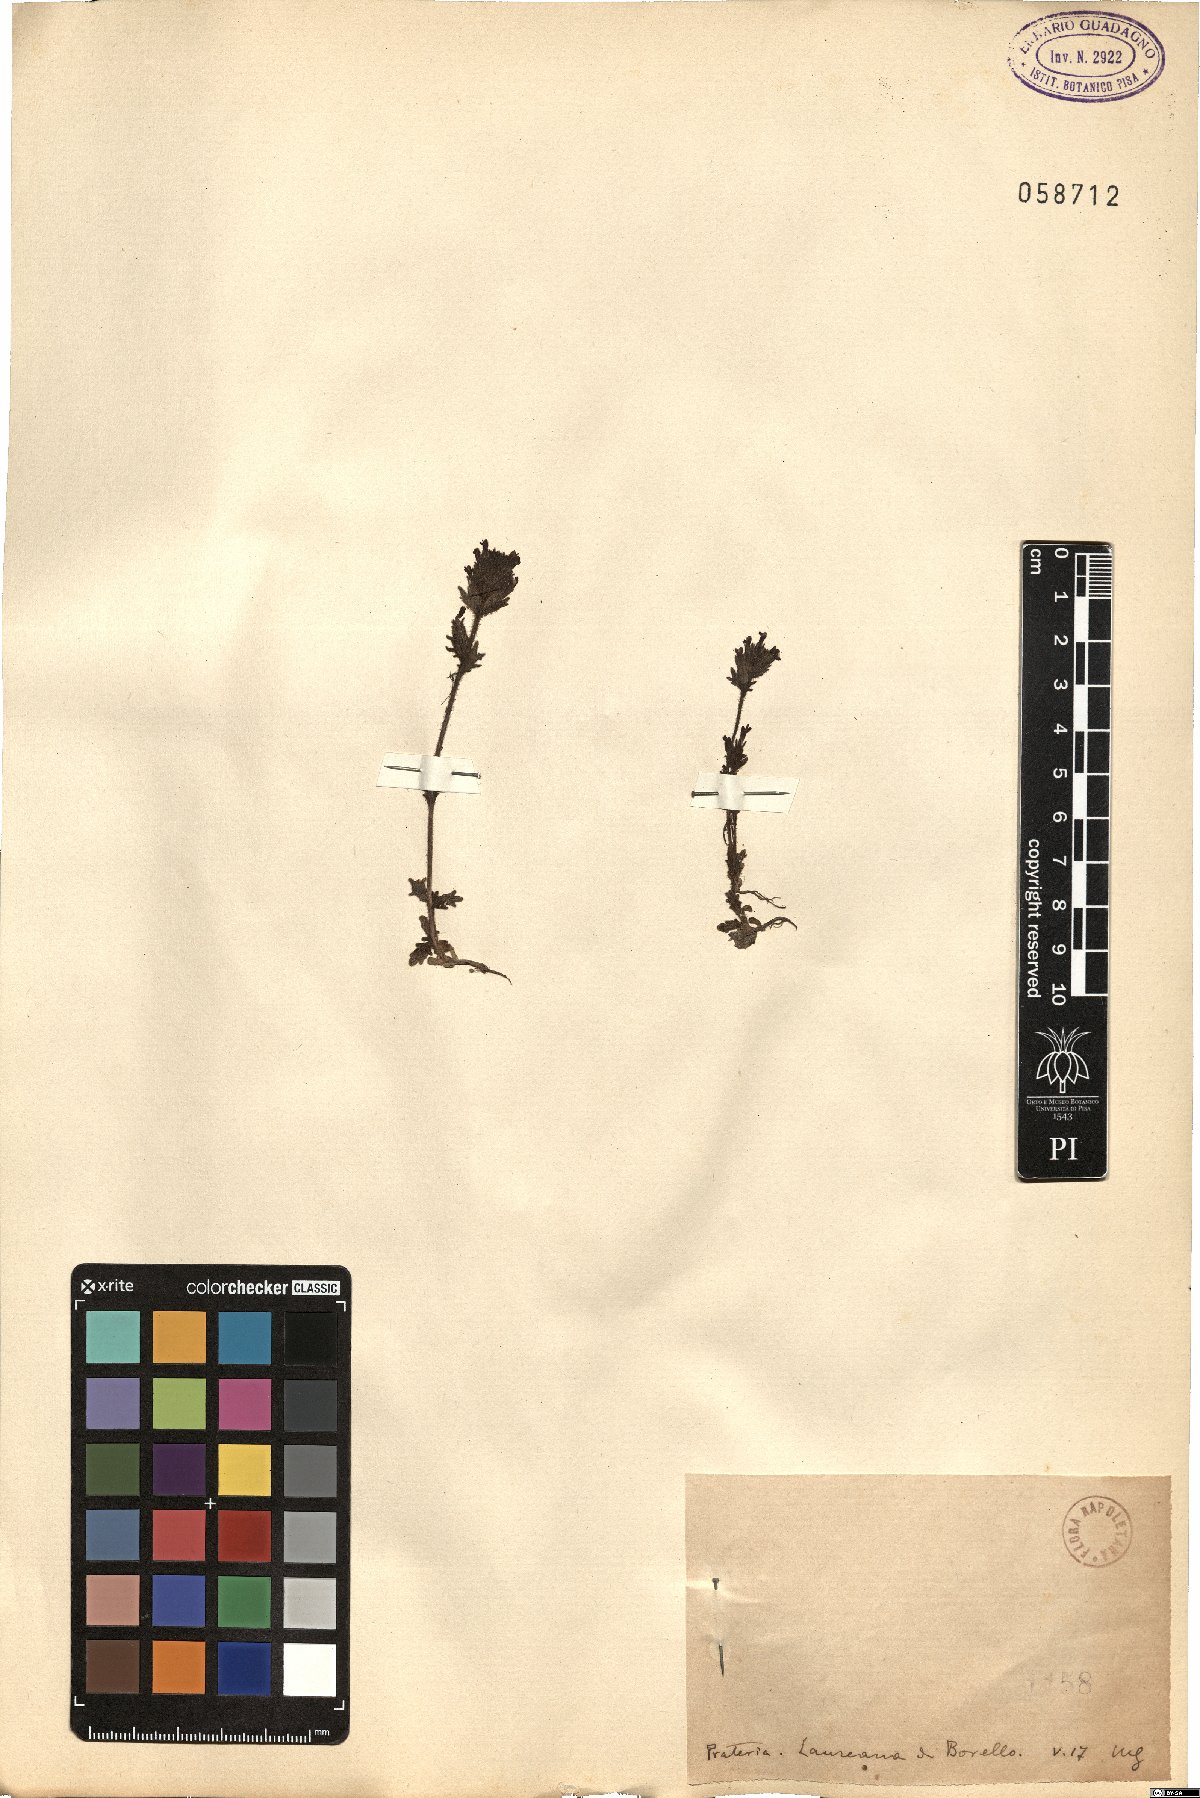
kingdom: Plantae
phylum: Tracheophyta
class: Magnoliopsida
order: Lamiales
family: Orobanchaceae
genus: Bartsia
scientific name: Bartsia
